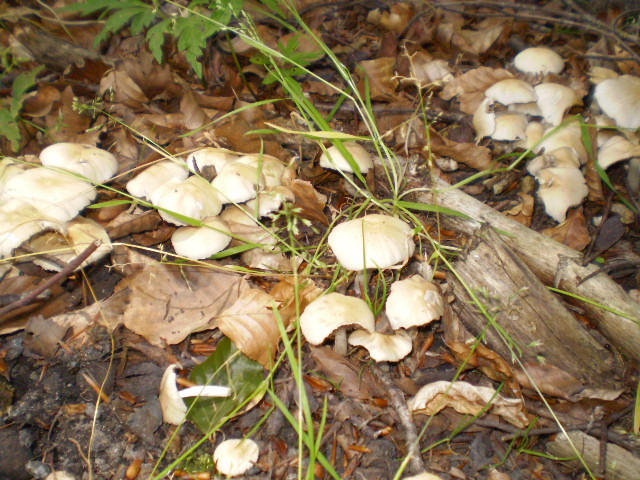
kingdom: Fungi
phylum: Basidiomycota
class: Agaricomycetes
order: Agaricales
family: Psathyrellaceae
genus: Candolleomyces
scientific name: Candolleomyces candolleanus
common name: Candolles mørkhat
